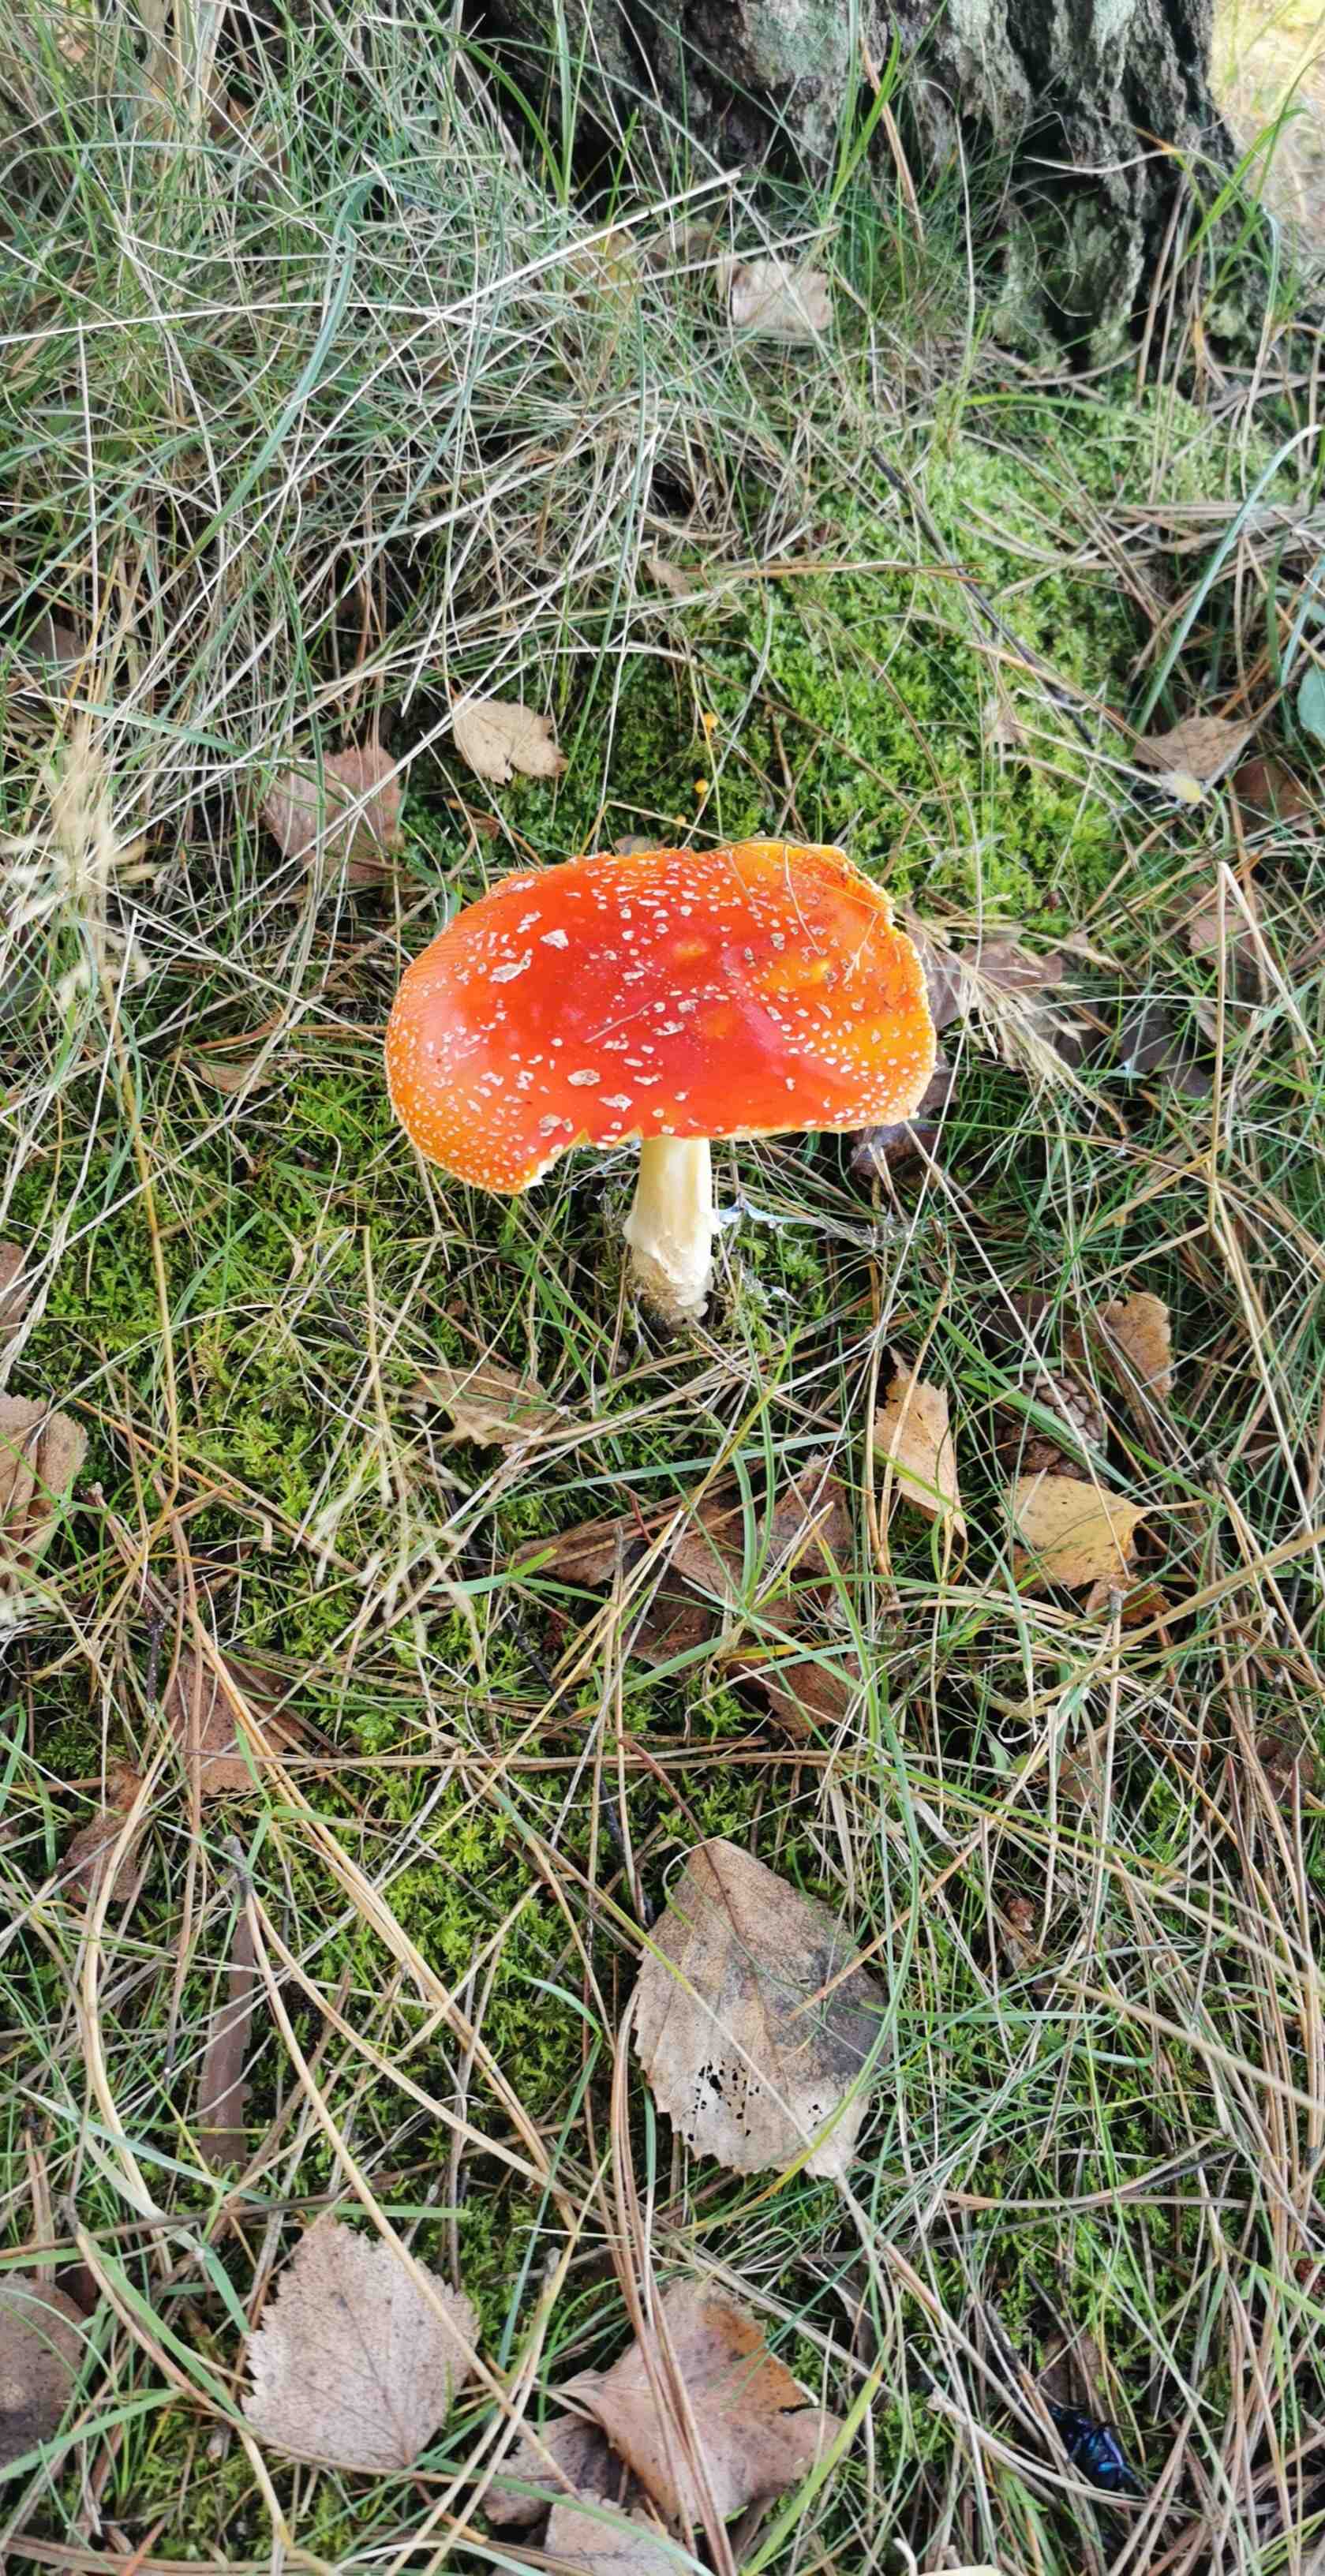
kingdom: Fungi
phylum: Basidiomycota
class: Agaricomycetes
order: Agaricales
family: Amanitaceae
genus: Amanita
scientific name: Amanita muscaria
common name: rød fluesvamp
